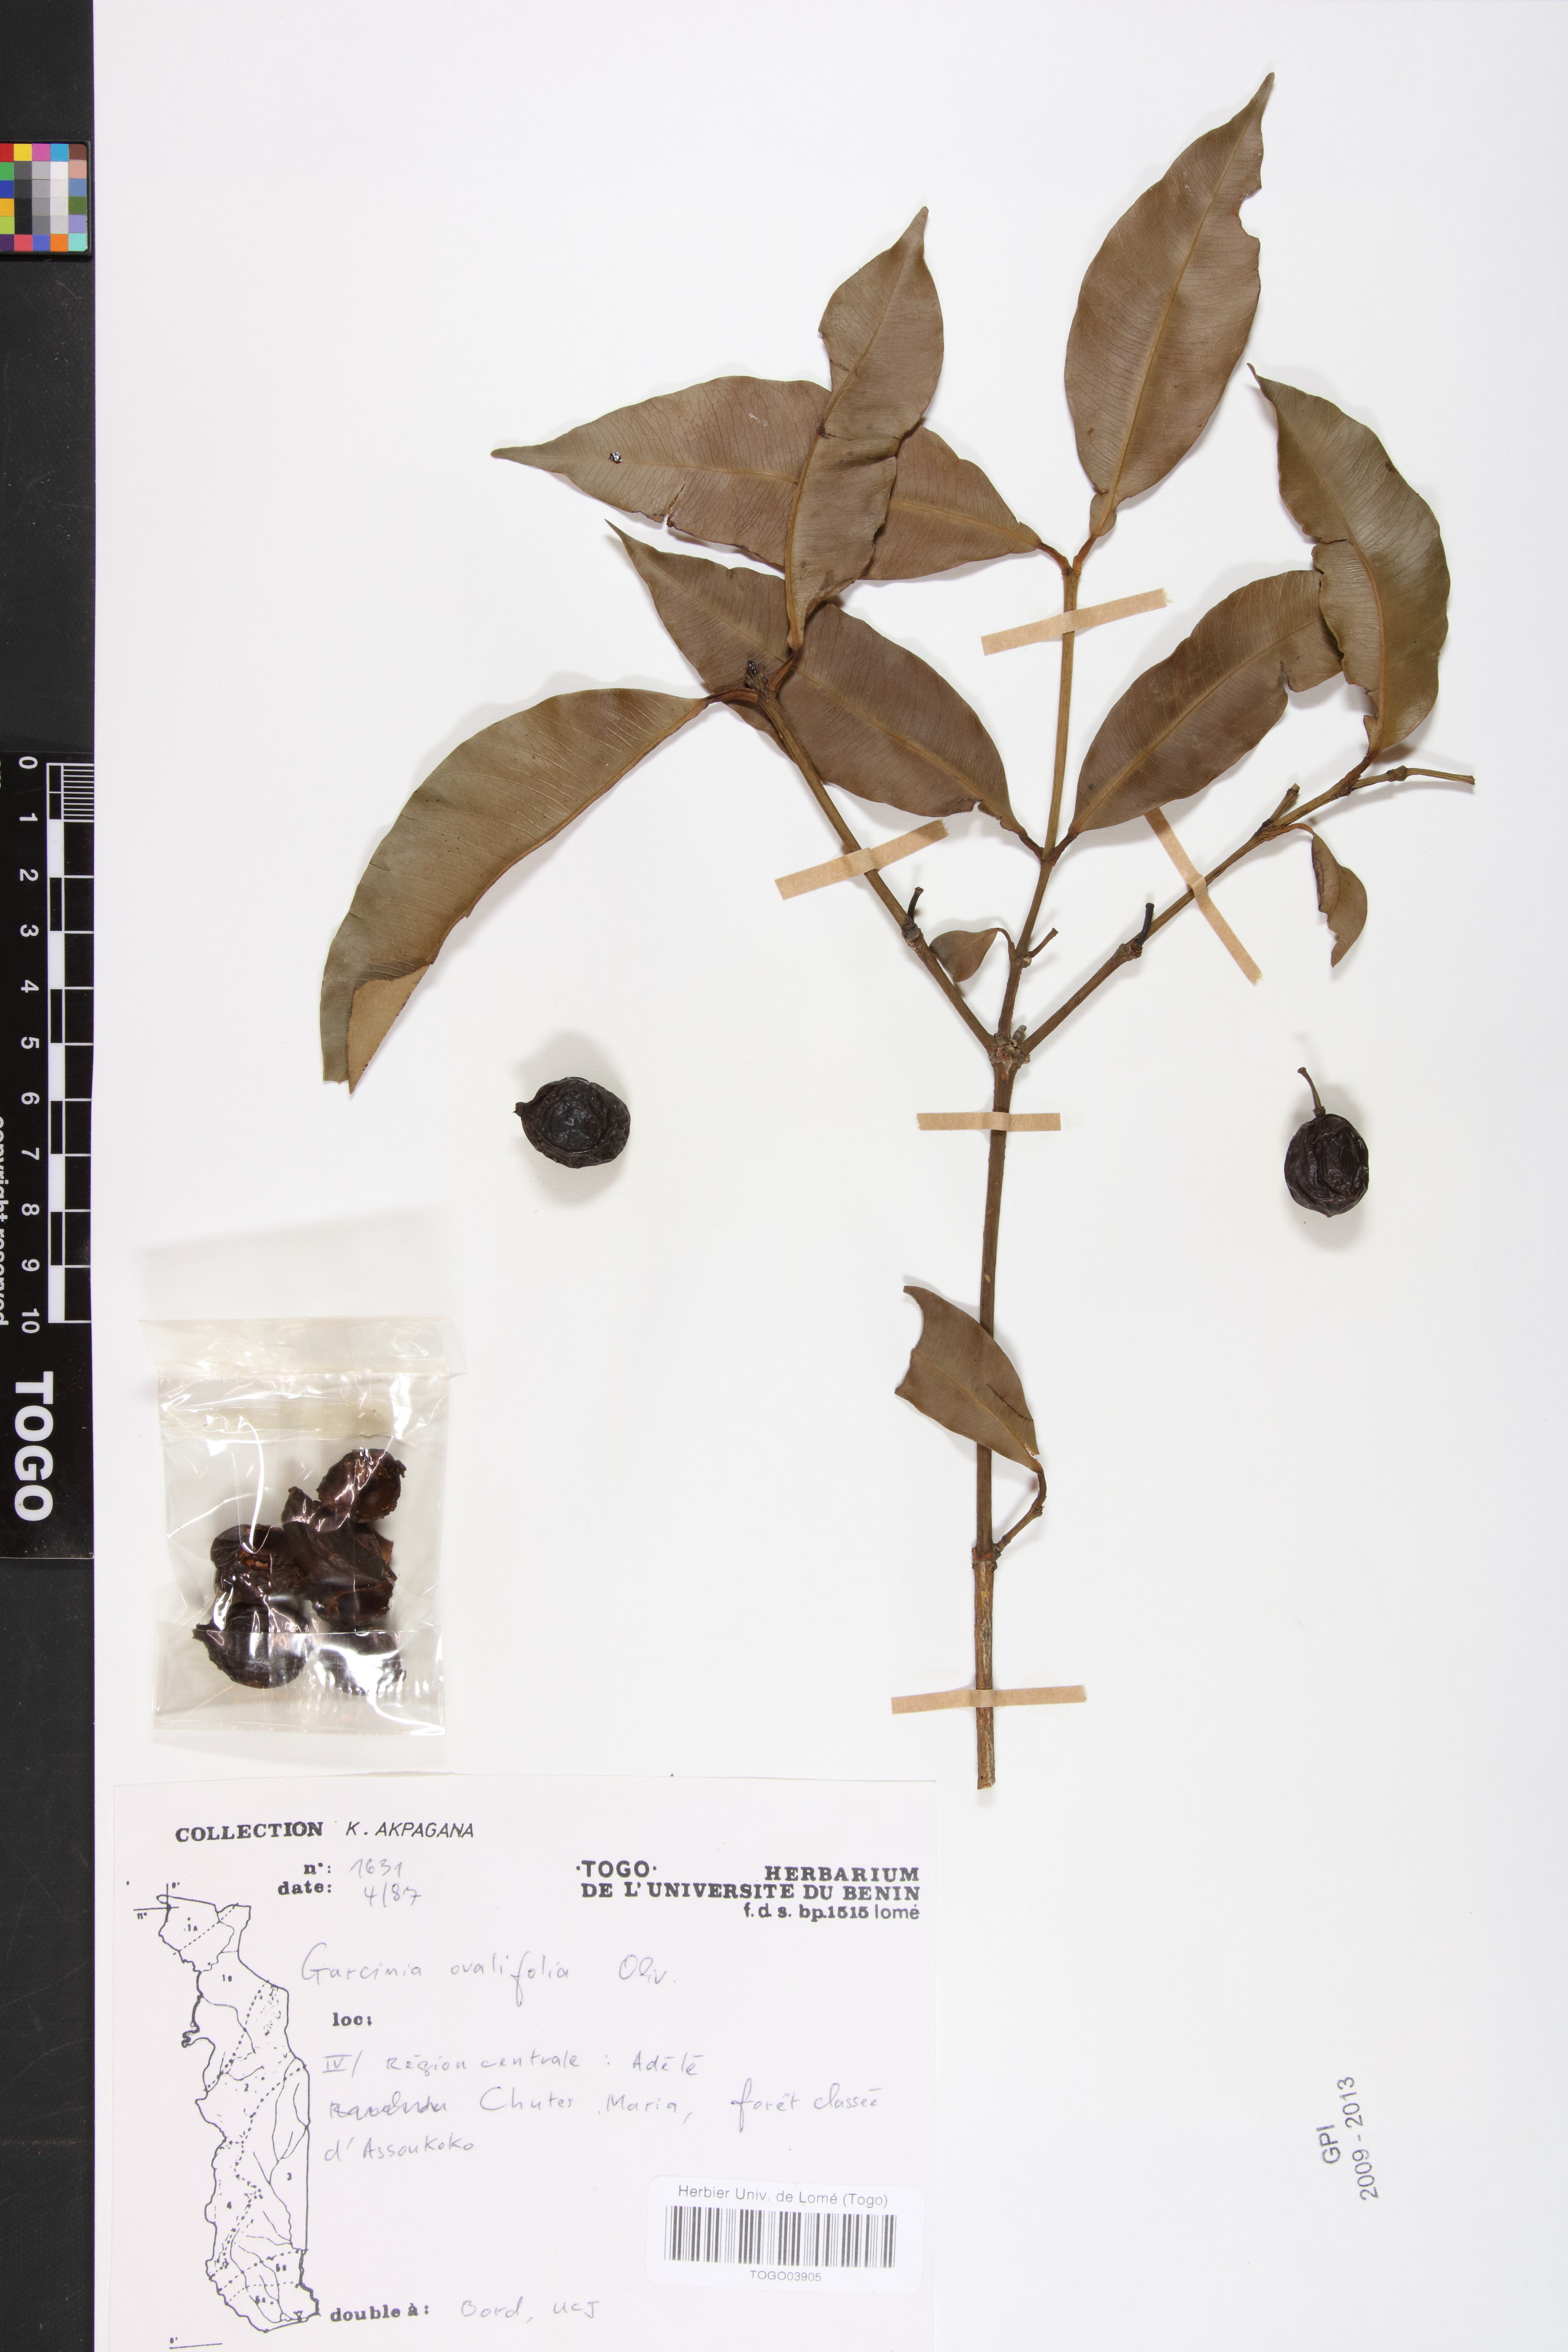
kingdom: Plantae
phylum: Tracheophyta
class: Magnoliopsida
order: Malpighiales
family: Clusiaceae
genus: Garcinia
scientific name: Garcinia ovalifolia
